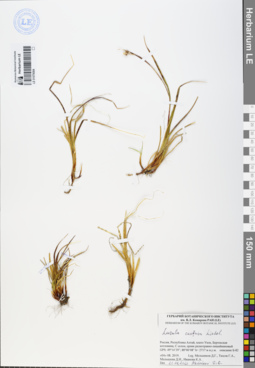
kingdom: Plantae
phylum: Tracheophyta
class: Liliopsida
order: Poales
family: Juncaceae
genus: Luzula
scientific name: Luzula confusa
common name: Northern wood rush
